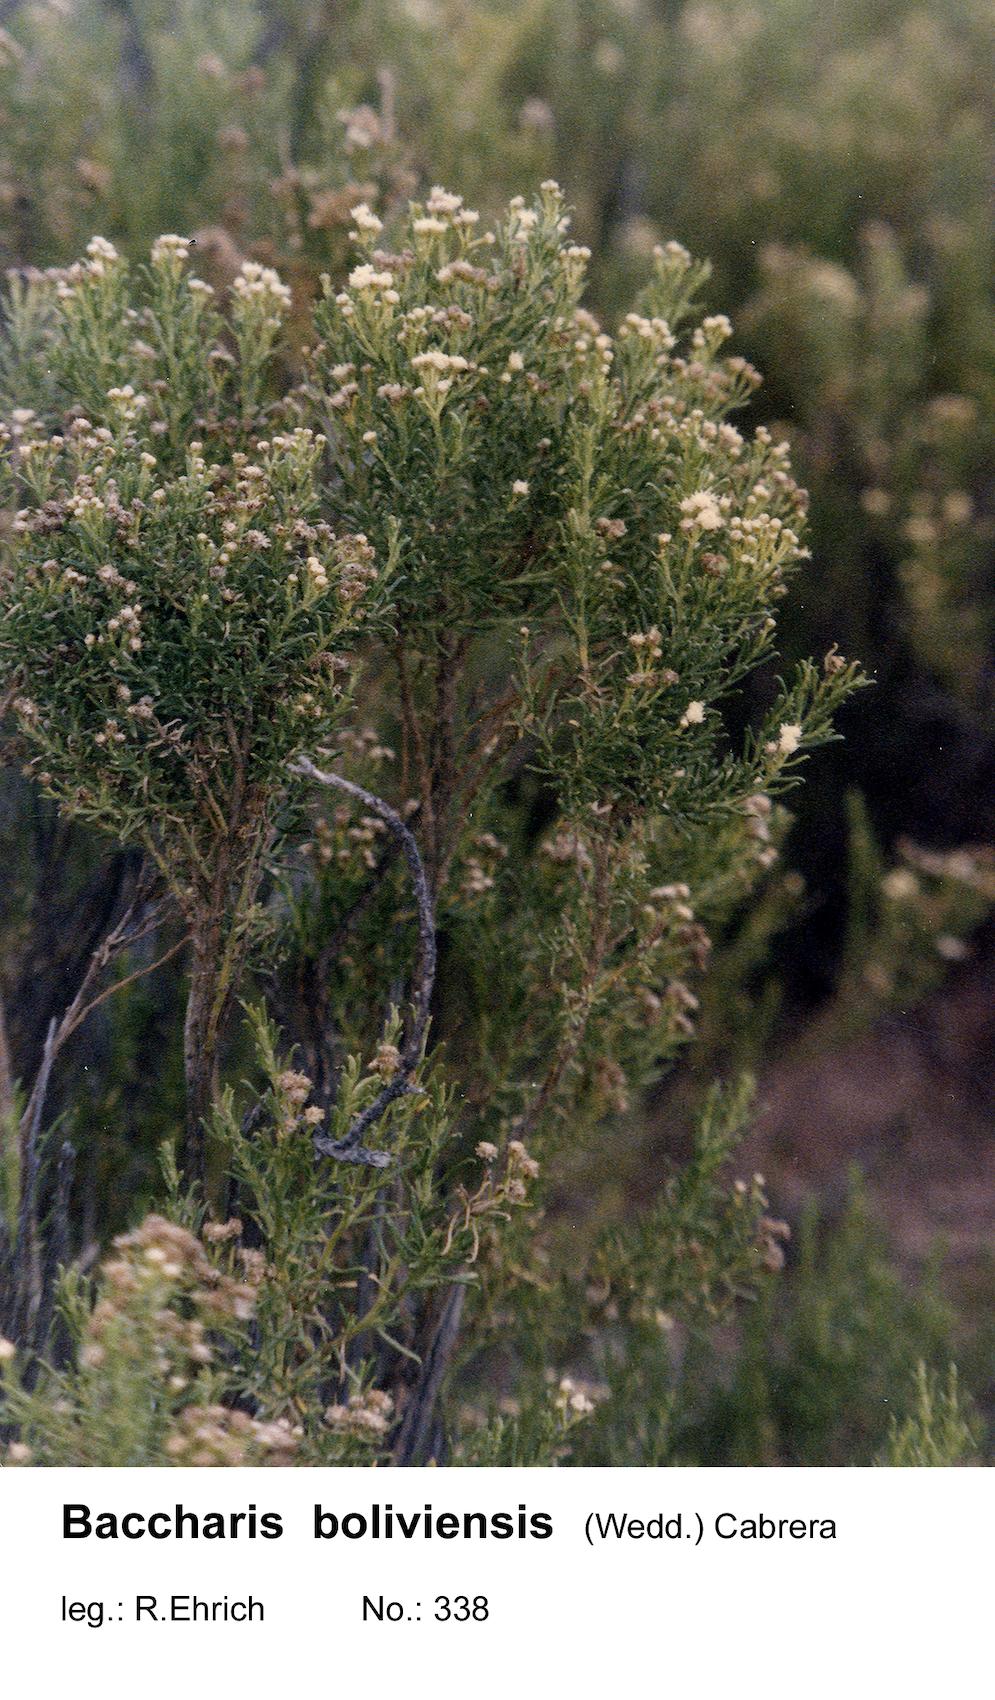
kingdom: Plantae
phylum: Tracheophyta
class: Magnoliopsida
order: Asterales
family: Asteraceae
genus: Baccharis
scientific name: Baccharis bolivensis
